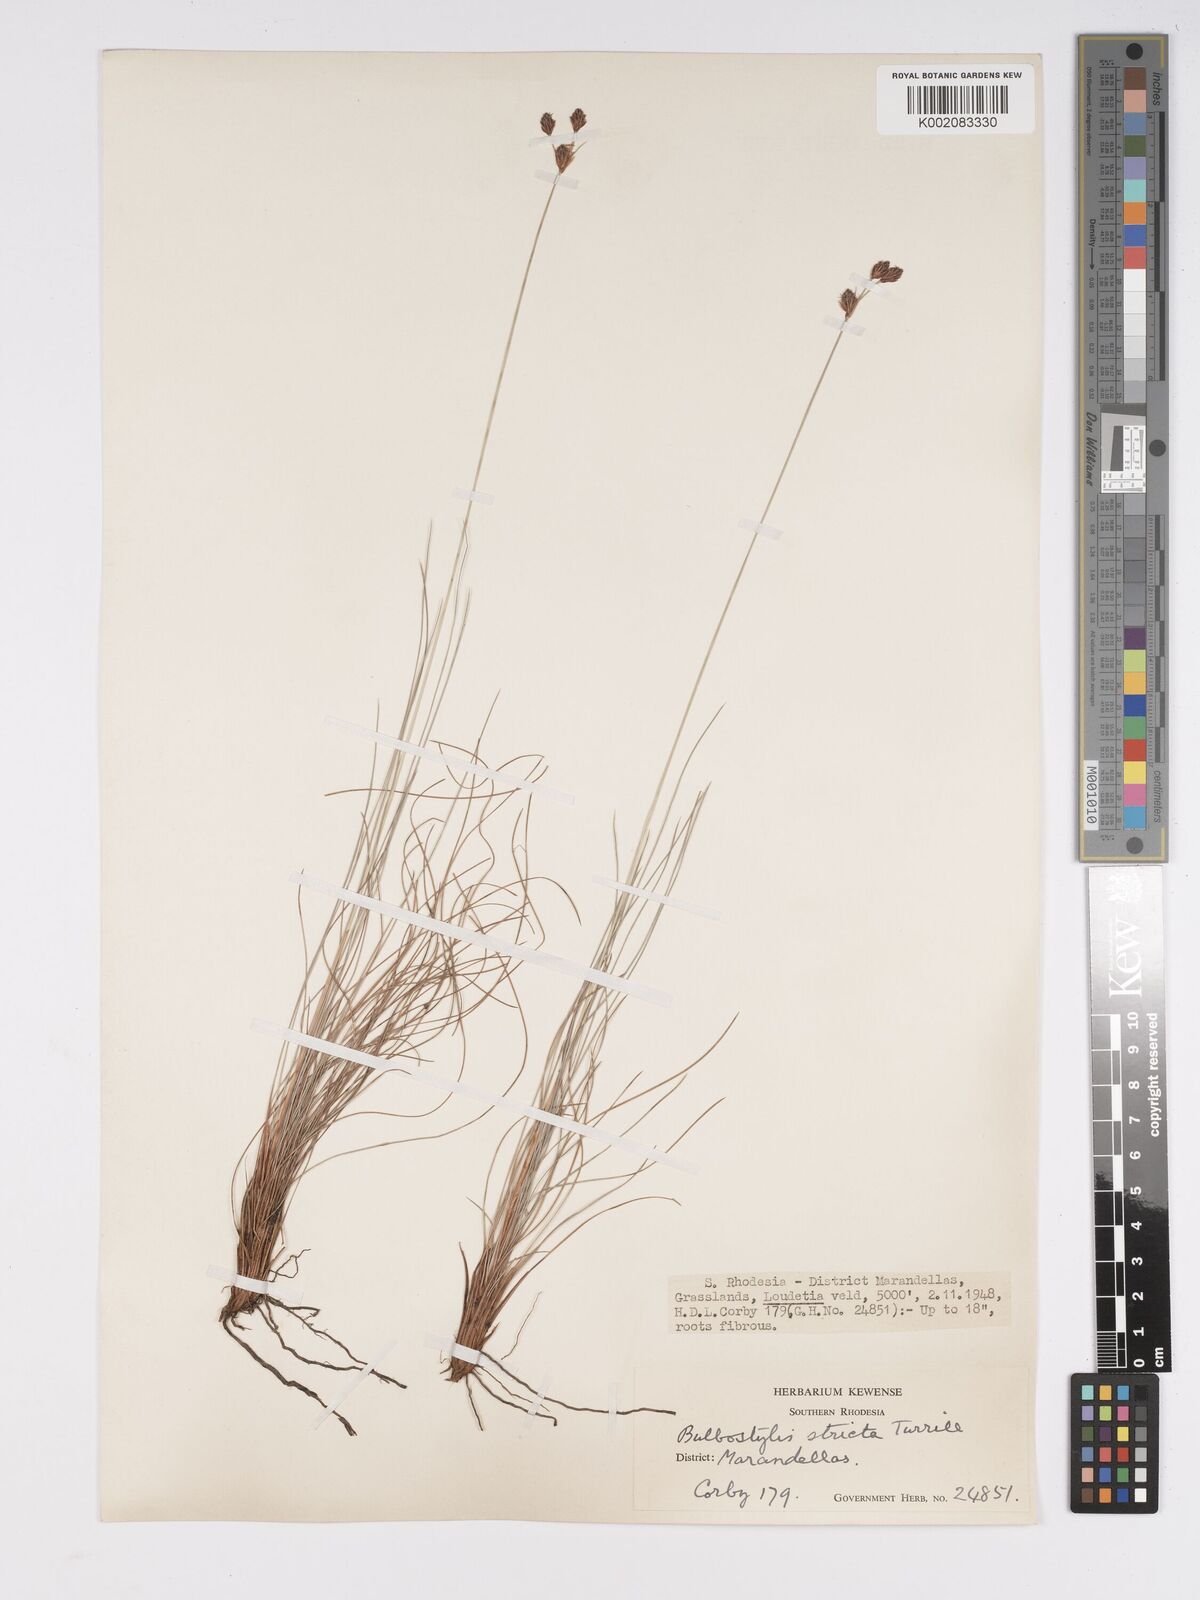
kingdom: Plantae
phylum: Tracheophyta
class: Liliopsida
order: Poales
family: Cyperaceae
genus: Bulbostylis
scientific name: Bulbostylis schoenoides
